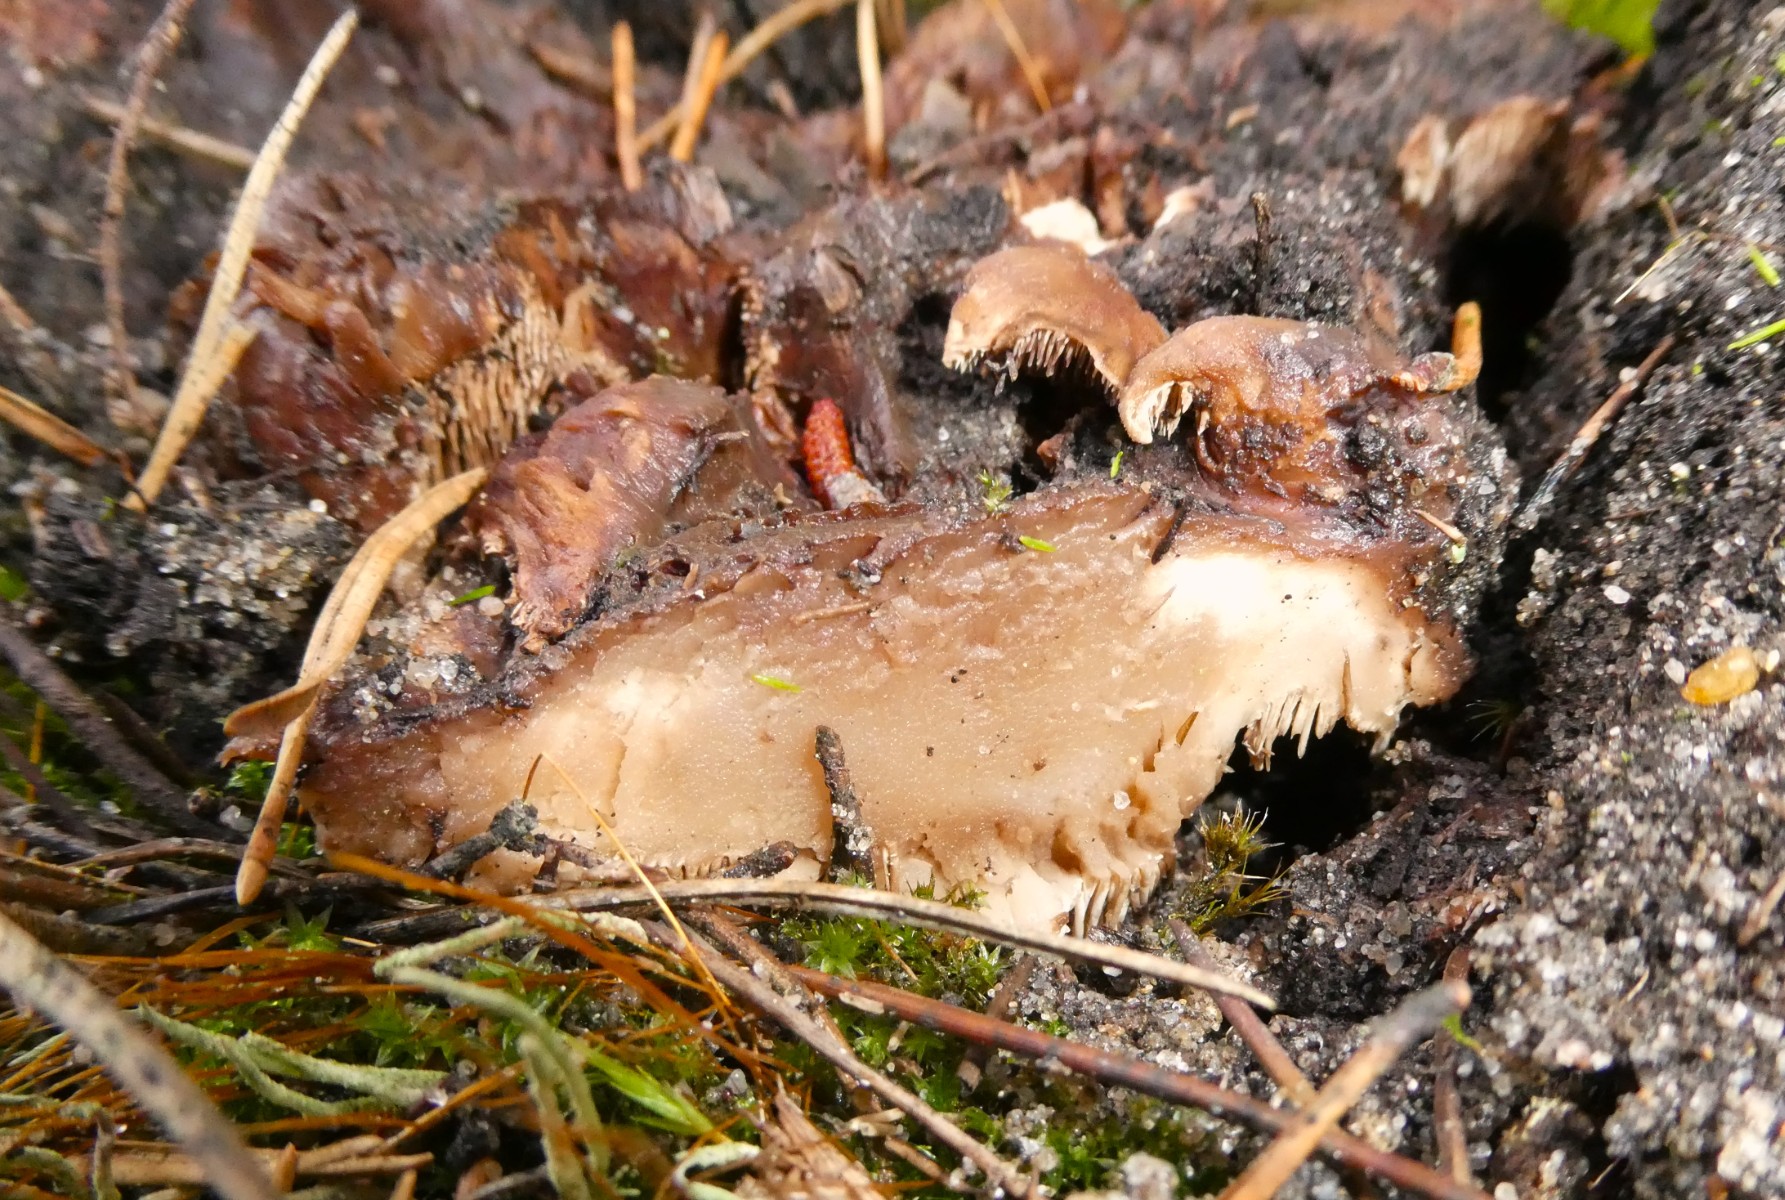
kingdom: Fungi
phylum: Basidiomycota
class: Agaricomycetes
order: Thelephorales
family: Thelephoraceae
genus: Phellodon
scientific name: Phellodon
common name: duftpigsvamp
